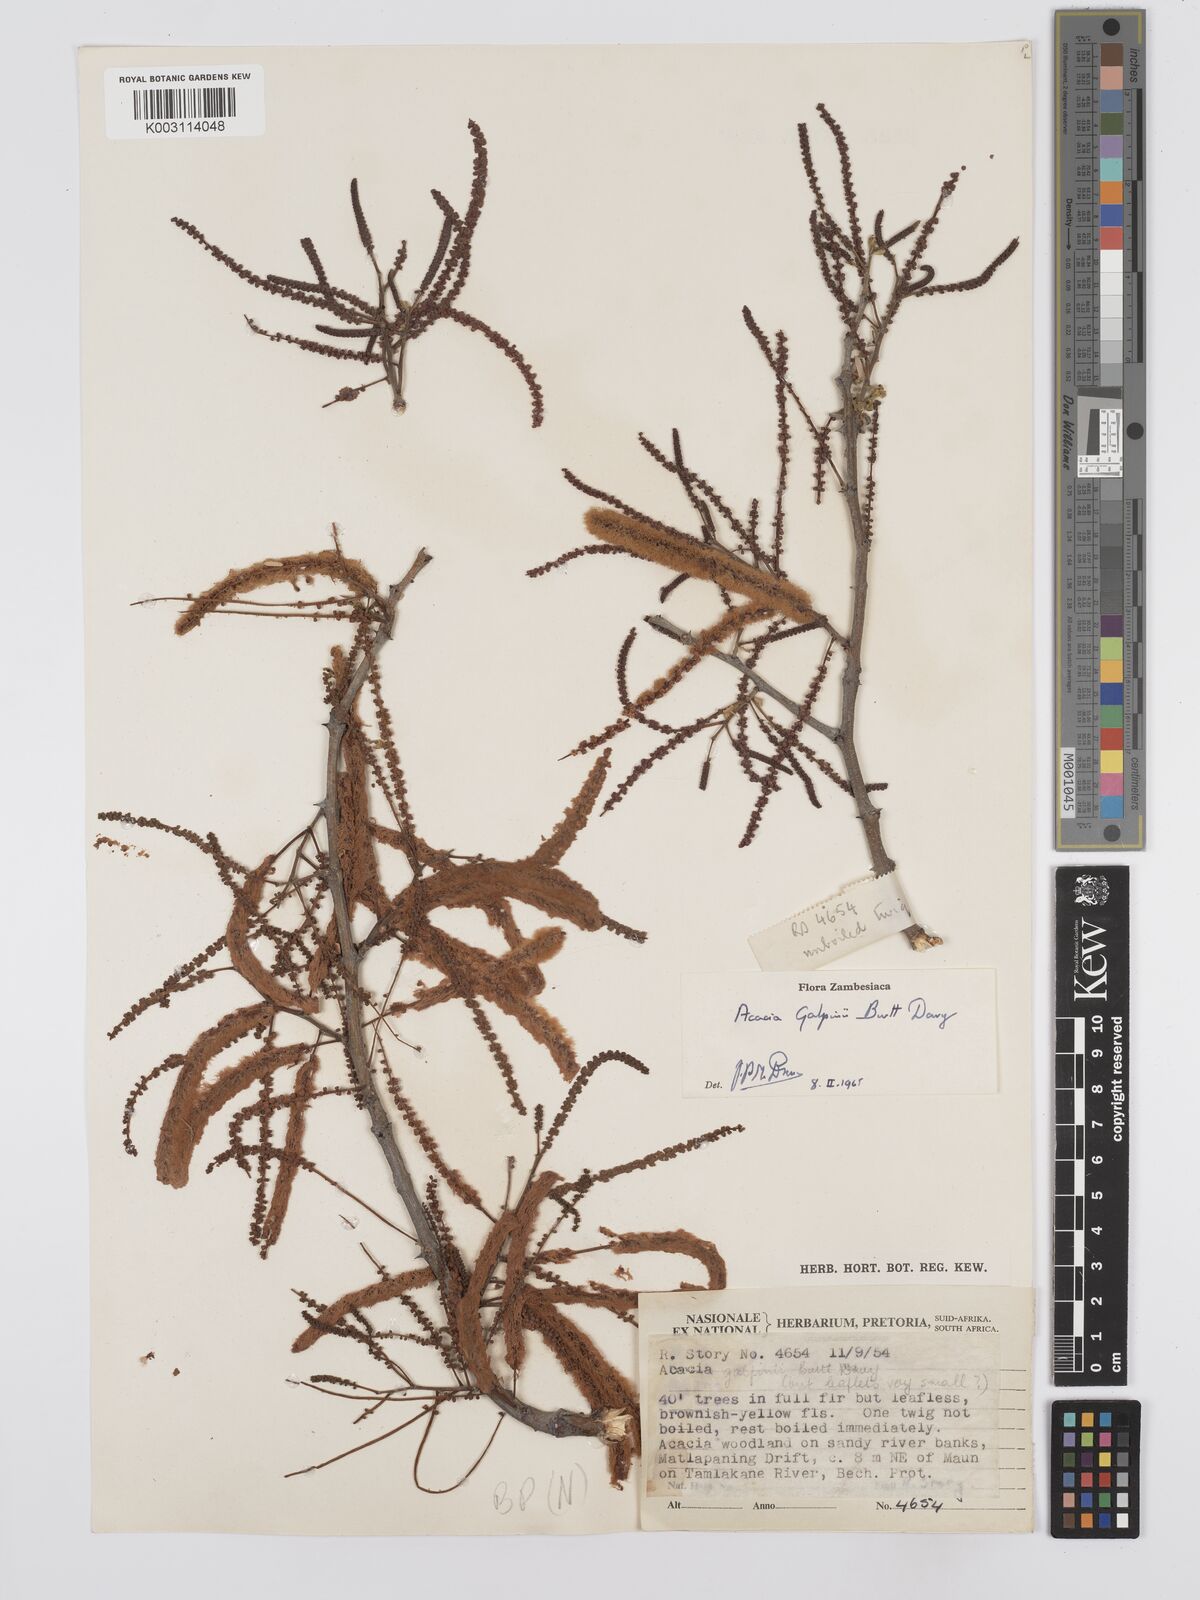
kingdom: Plantae
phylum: Tracheophyta
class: Magnoliopsida
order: Fabales
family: Fabaceae
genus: Senegalia
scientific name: Senegalia galpinii
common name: Monkey-thorn
